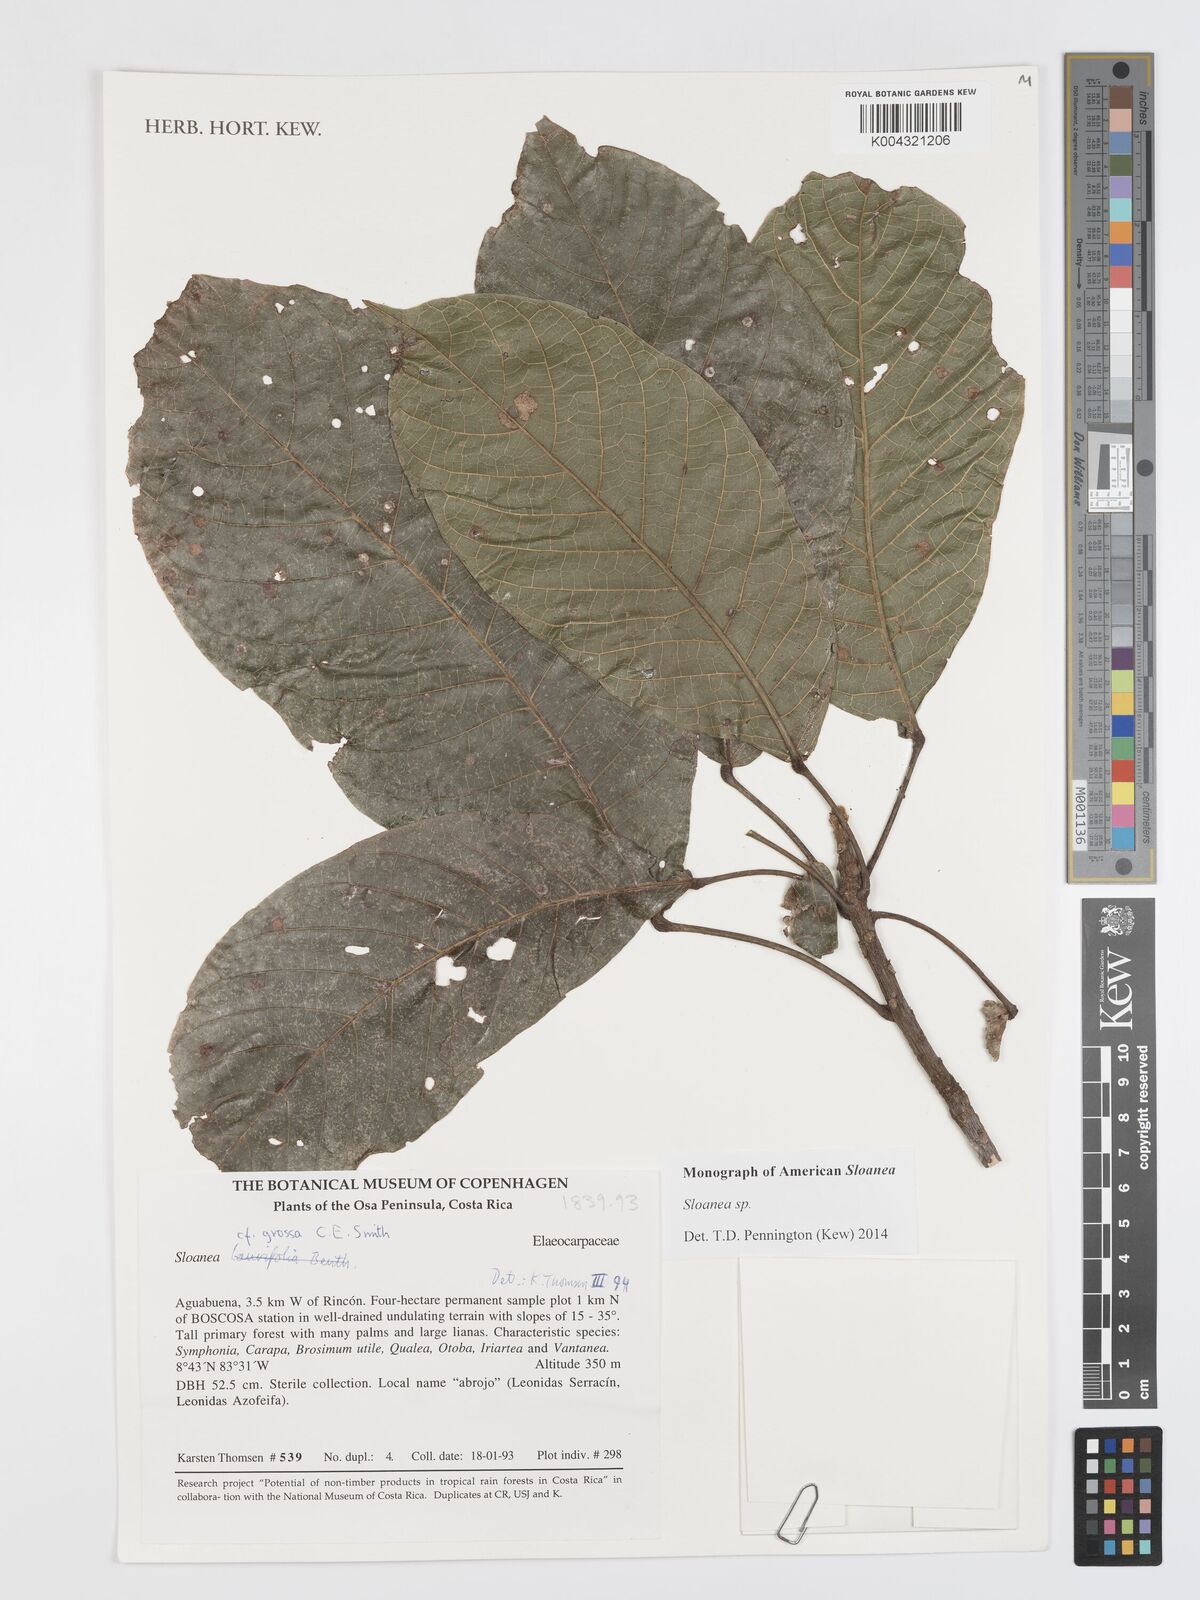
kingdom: Plantae
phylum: Tracheophyta
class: Magnoliopsida
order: Oxalidales
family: Elaeocarpaceae
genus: Sloanea
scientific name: Sloanea
